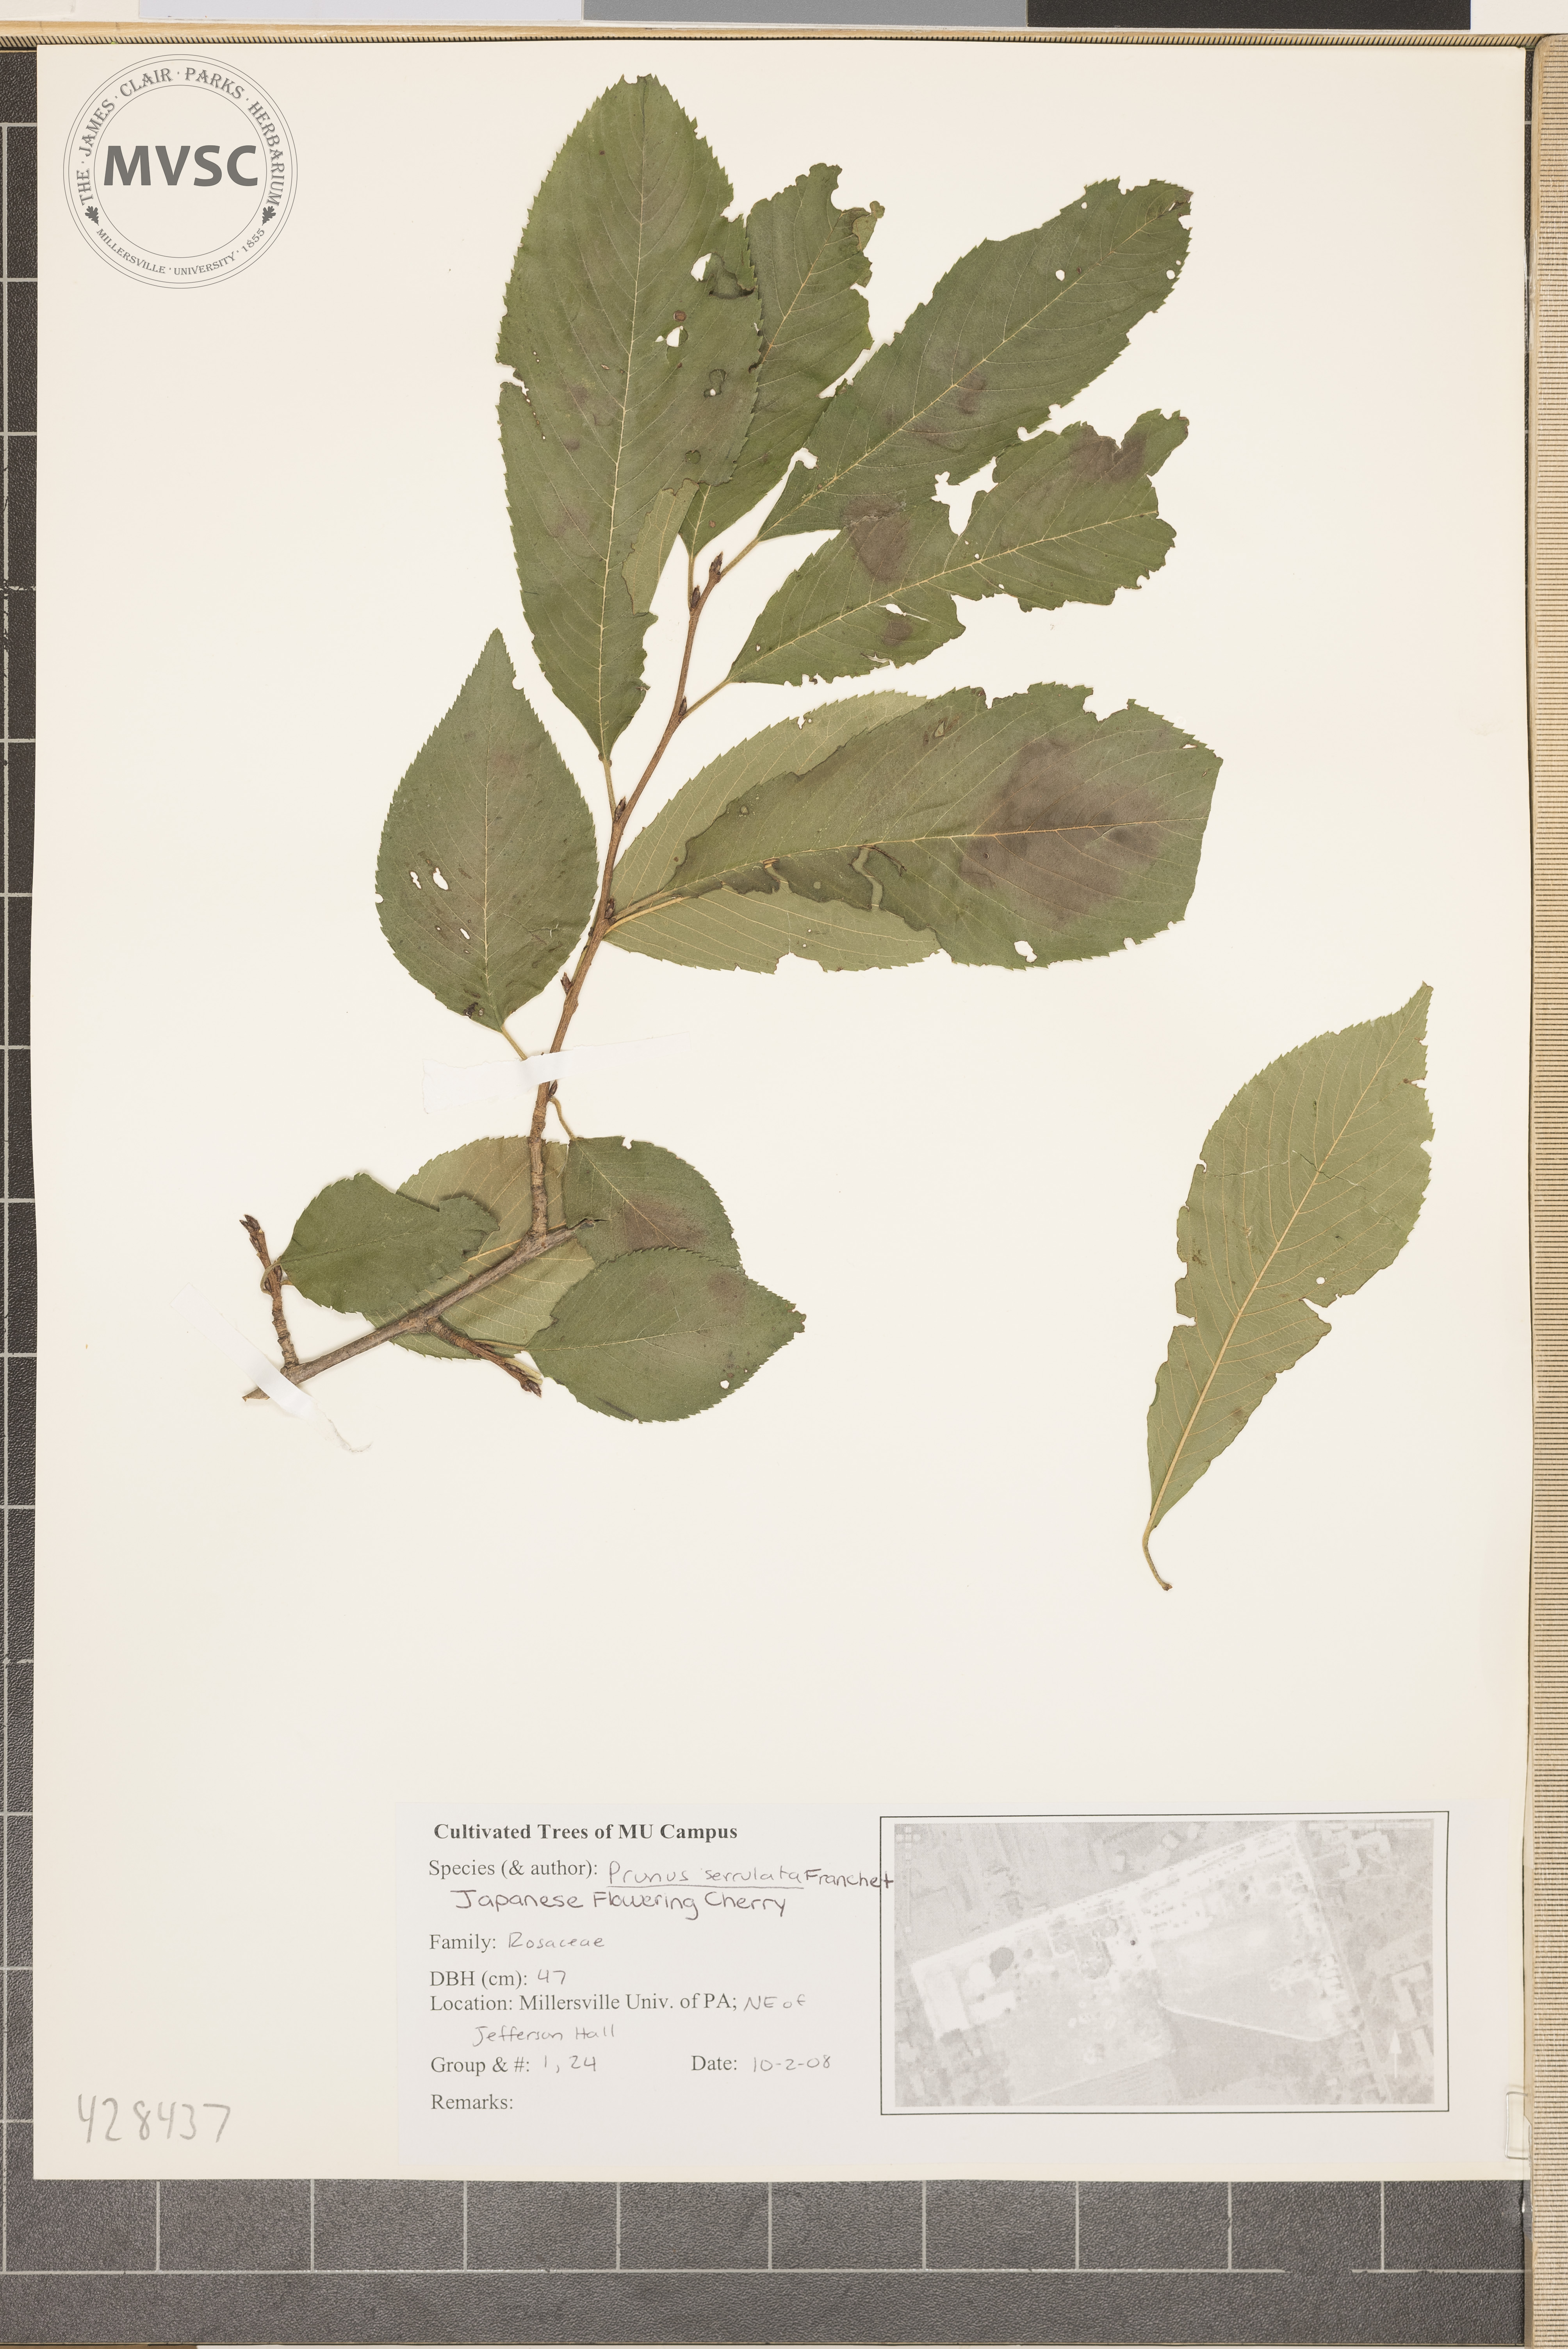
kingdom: Plantae
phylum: Tracheophyta
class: Magnoliopsida
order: Rosales
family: Rosaceae
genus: Prunus
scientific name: Prunus serrulata
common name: Japanese Cherry
